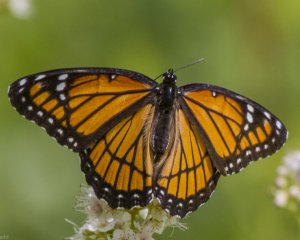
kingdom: Animalia
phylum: Arthropoda
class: Insecta
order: Lepidoptera
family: Nymphalidae
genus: Limenitis
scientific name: Limenitis archippus
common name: Viceroy
